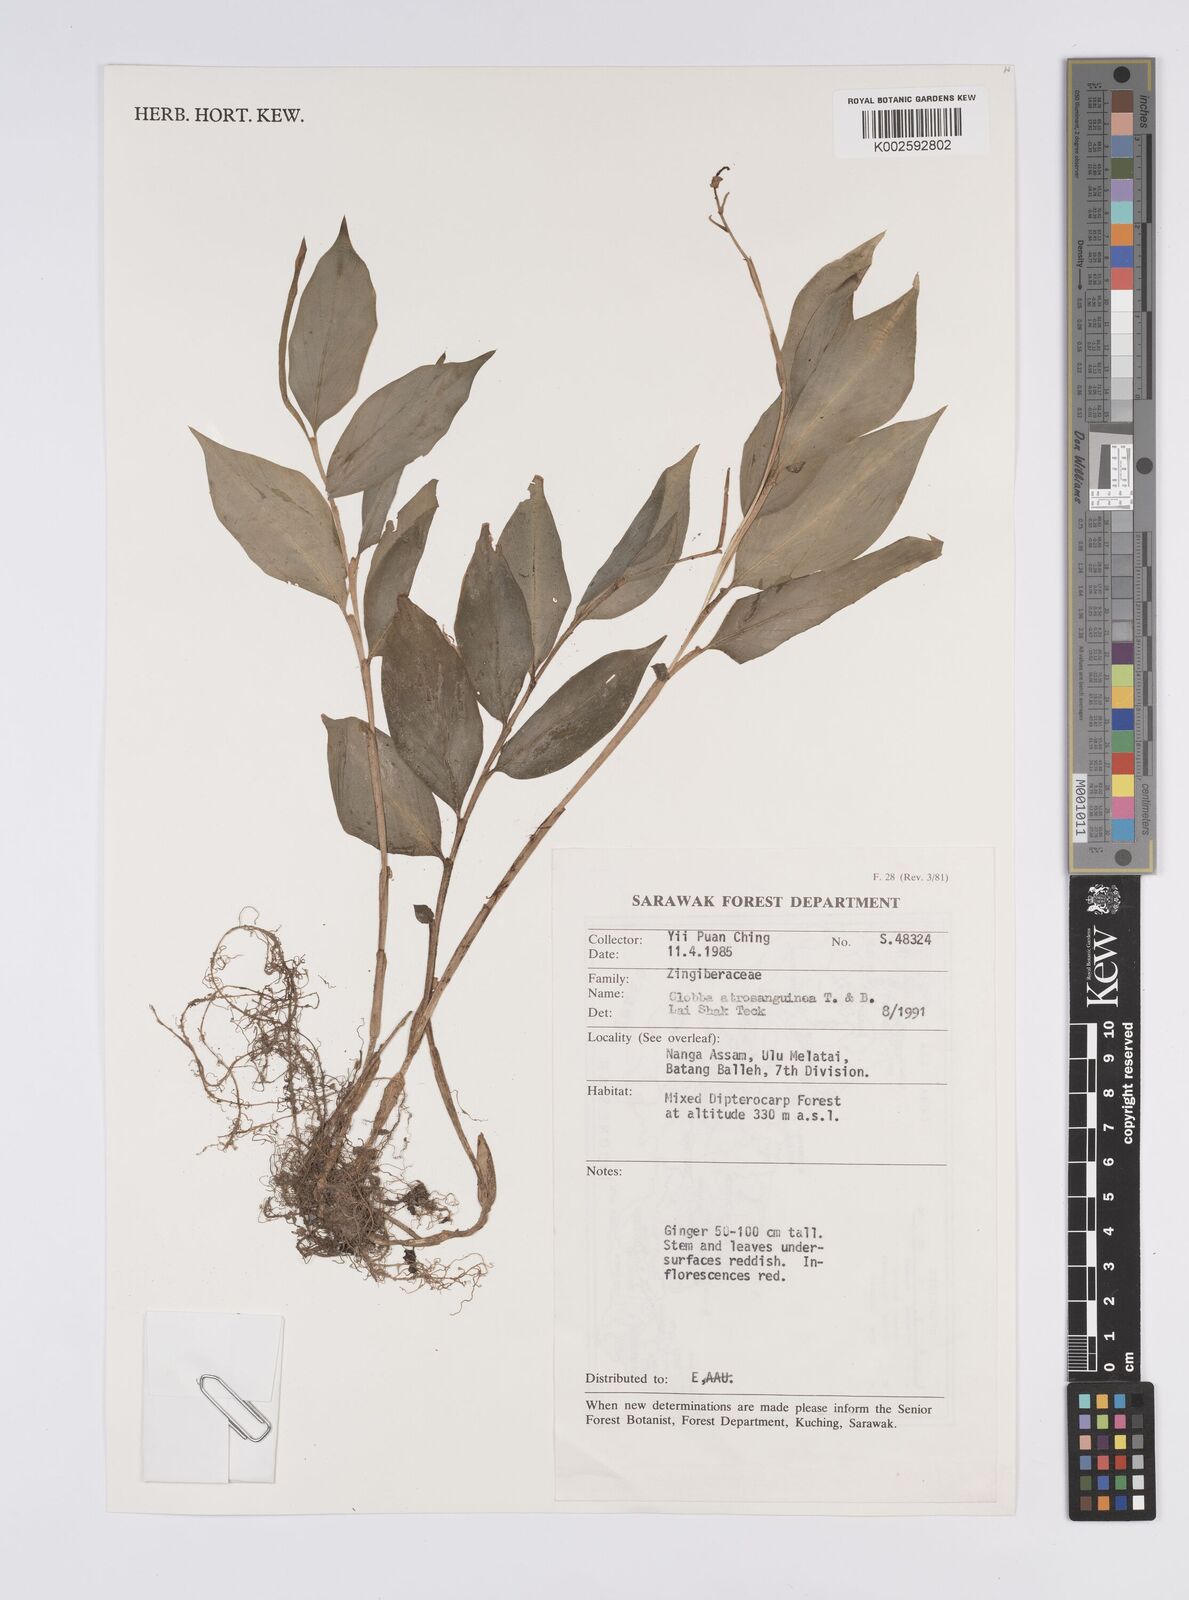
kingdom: Plantae
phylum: Tracheophyta
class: Liliopsida
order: Zingiberales
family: Zingiberaceae
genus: Globba
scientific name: Globba atrosanguinea
